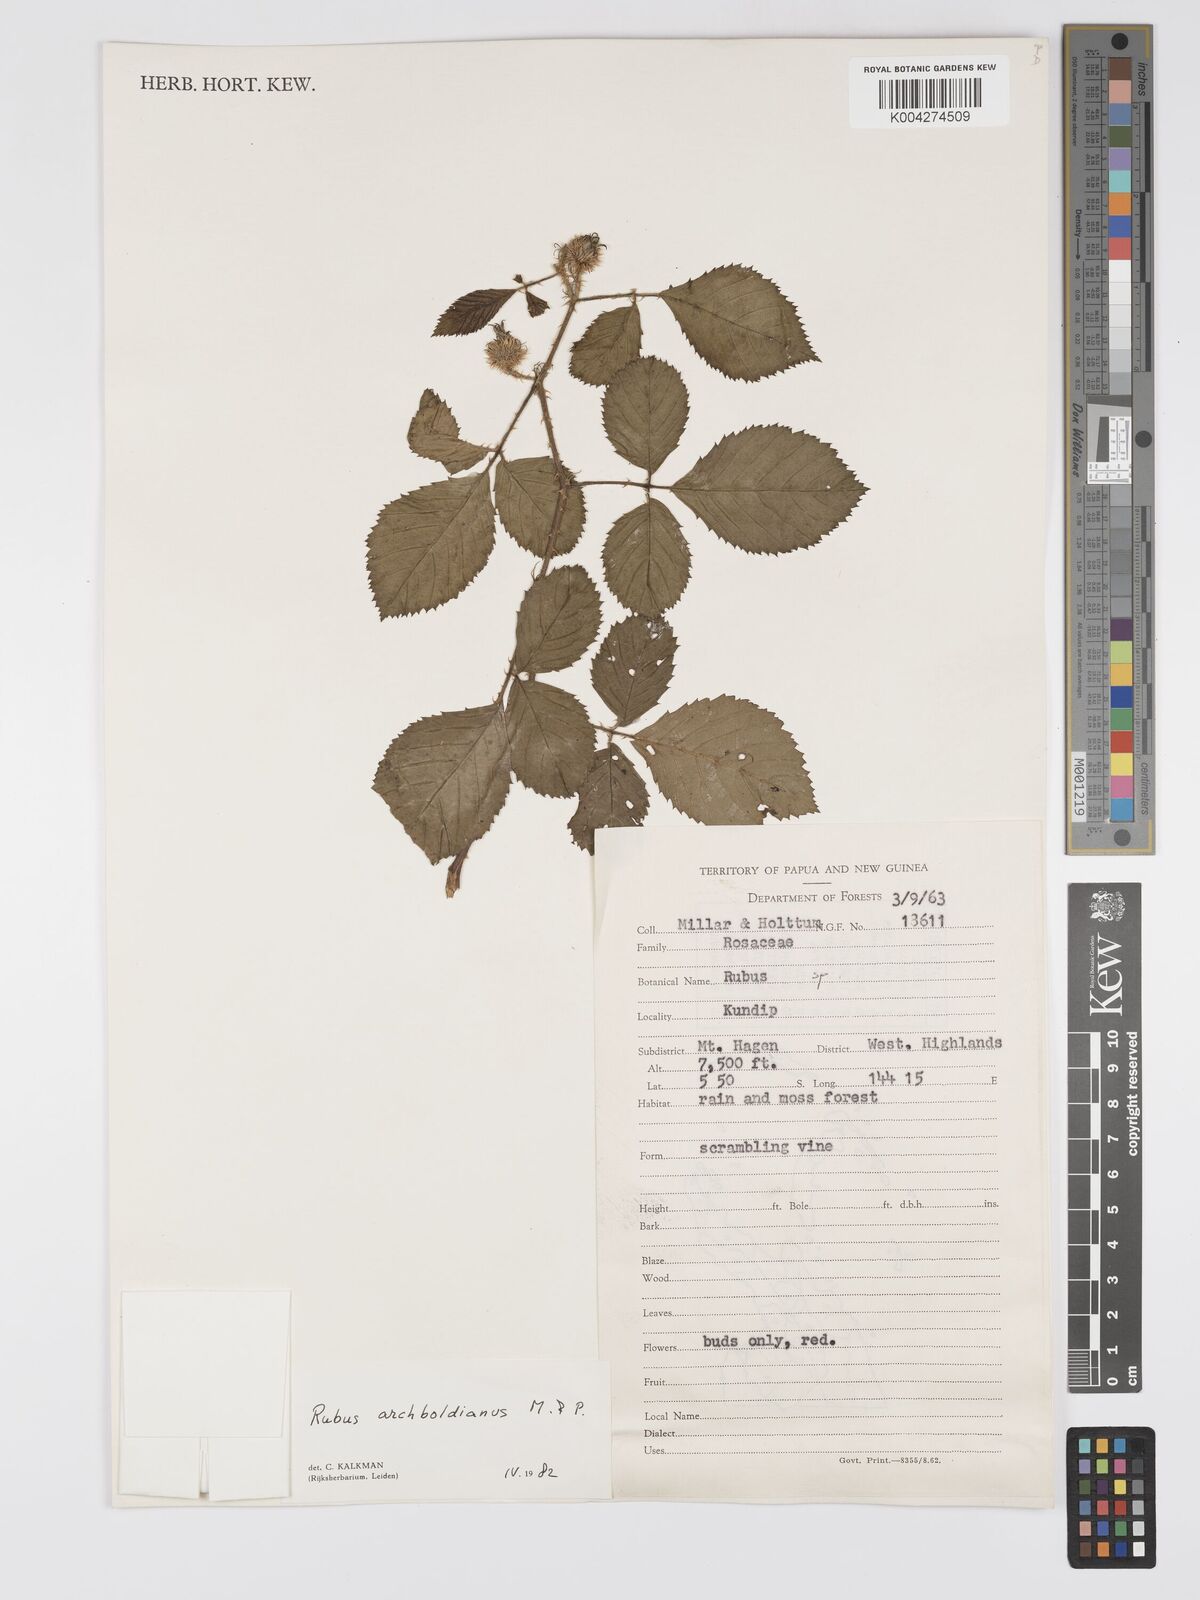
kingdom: Plantae
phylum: Tracheophyta
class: Magnoliopsida
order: Rosales
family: Rosaceae
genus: Rubus
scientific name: Rubus archboldianus
